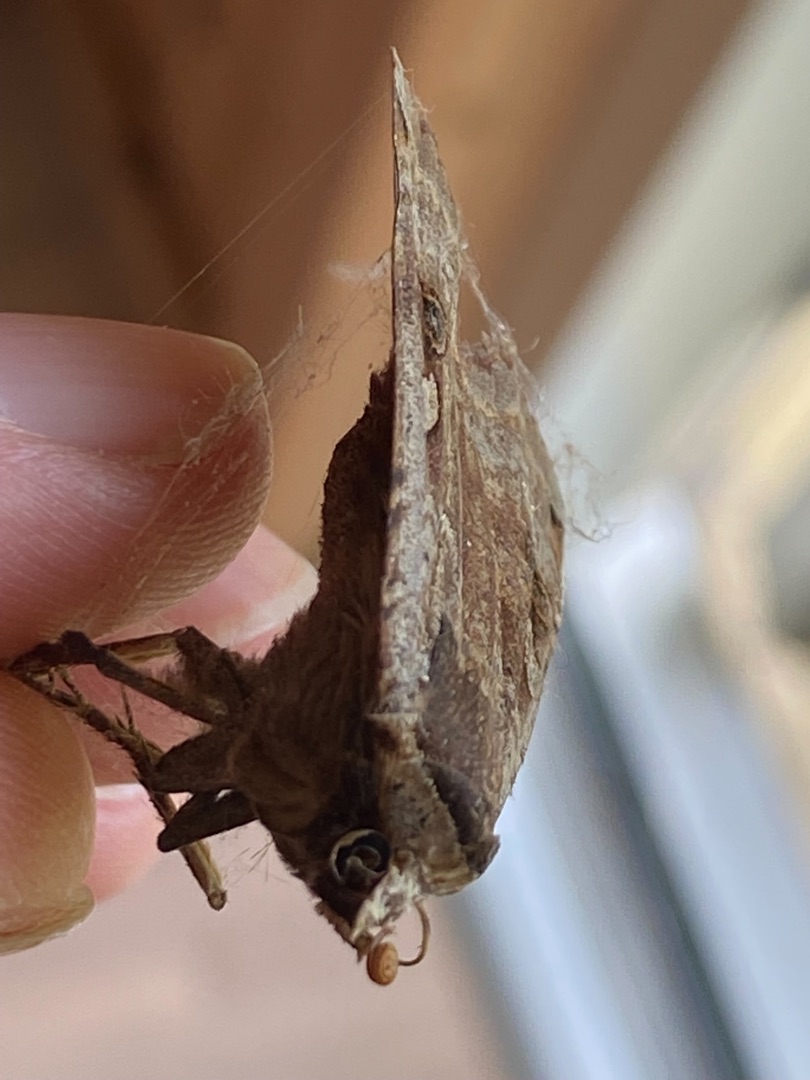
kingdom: Animalia
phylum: Arthropoda
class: Insecta
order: Lepidoptera
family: Noctuidae
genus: Noctua
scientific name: Noctua pronuba
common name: Stor smutugle
